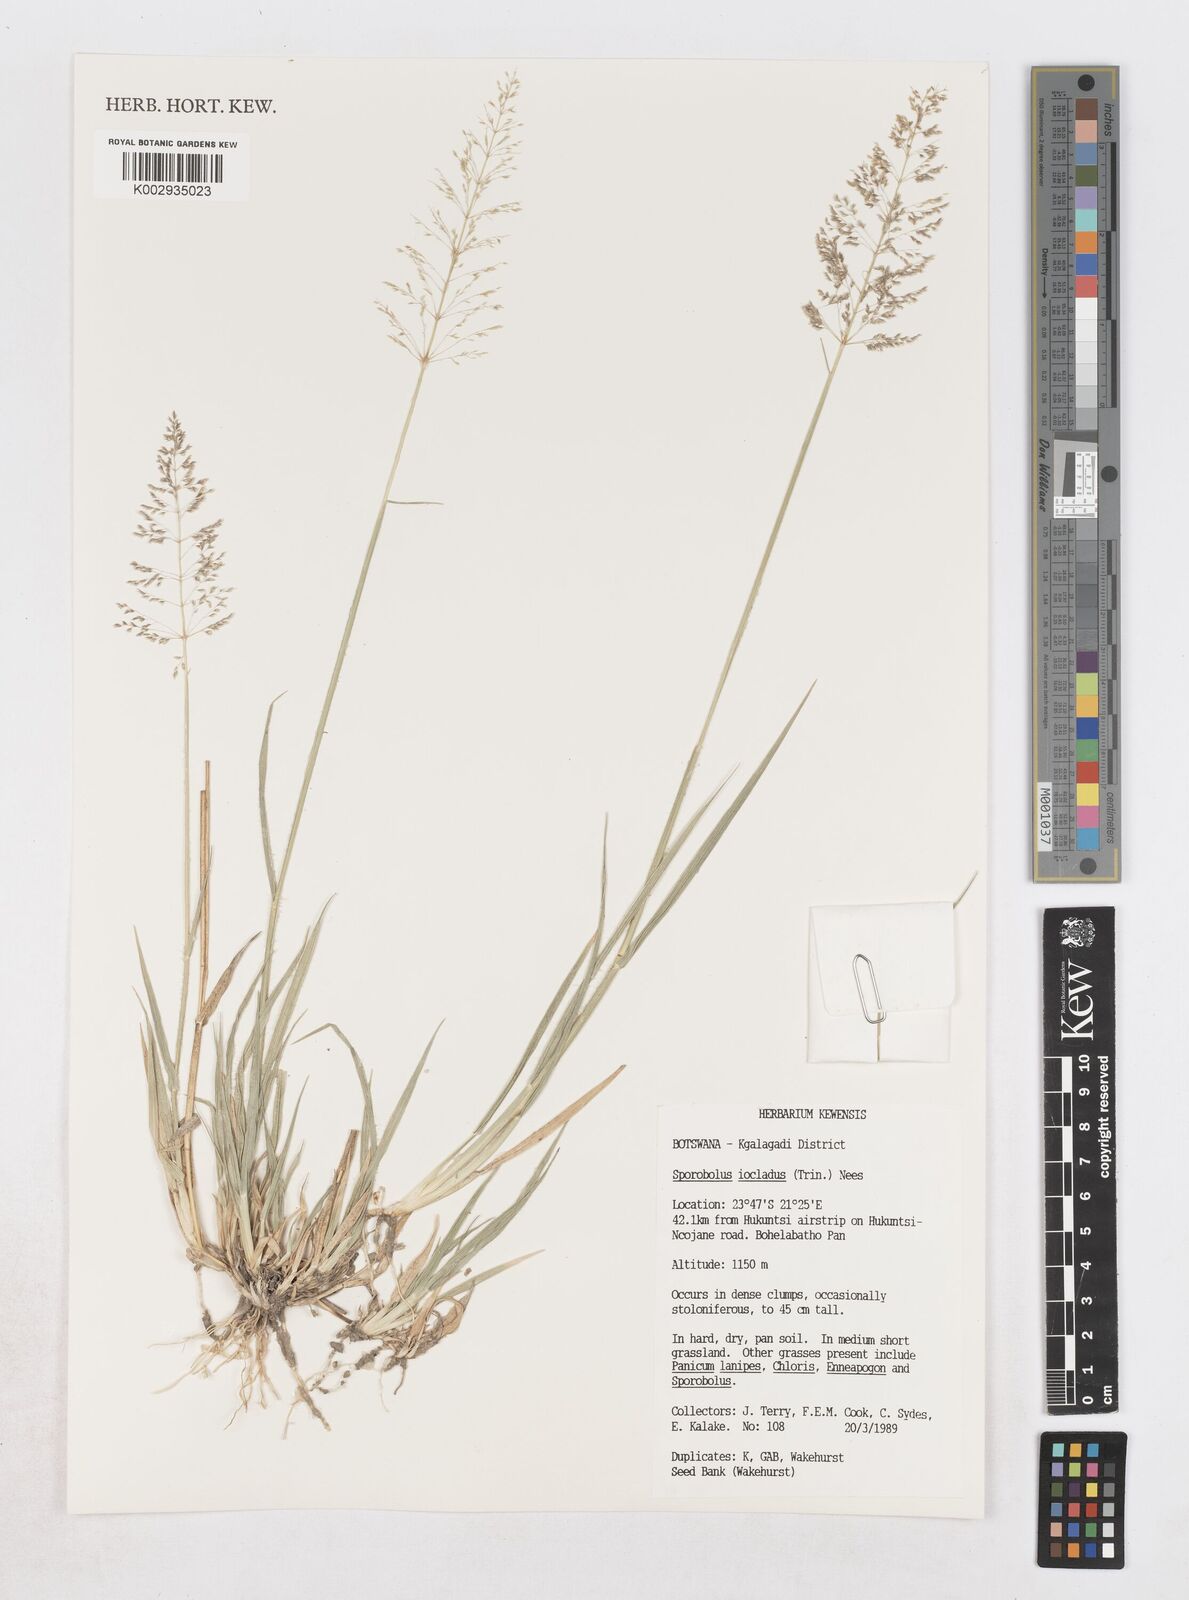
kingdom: Plantae
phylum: Tracheophyta
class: Liliopsida
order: Poales
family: Poaceae
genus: Sporobolus
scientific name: Sporobolus ioclados
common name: Pan dropseed
